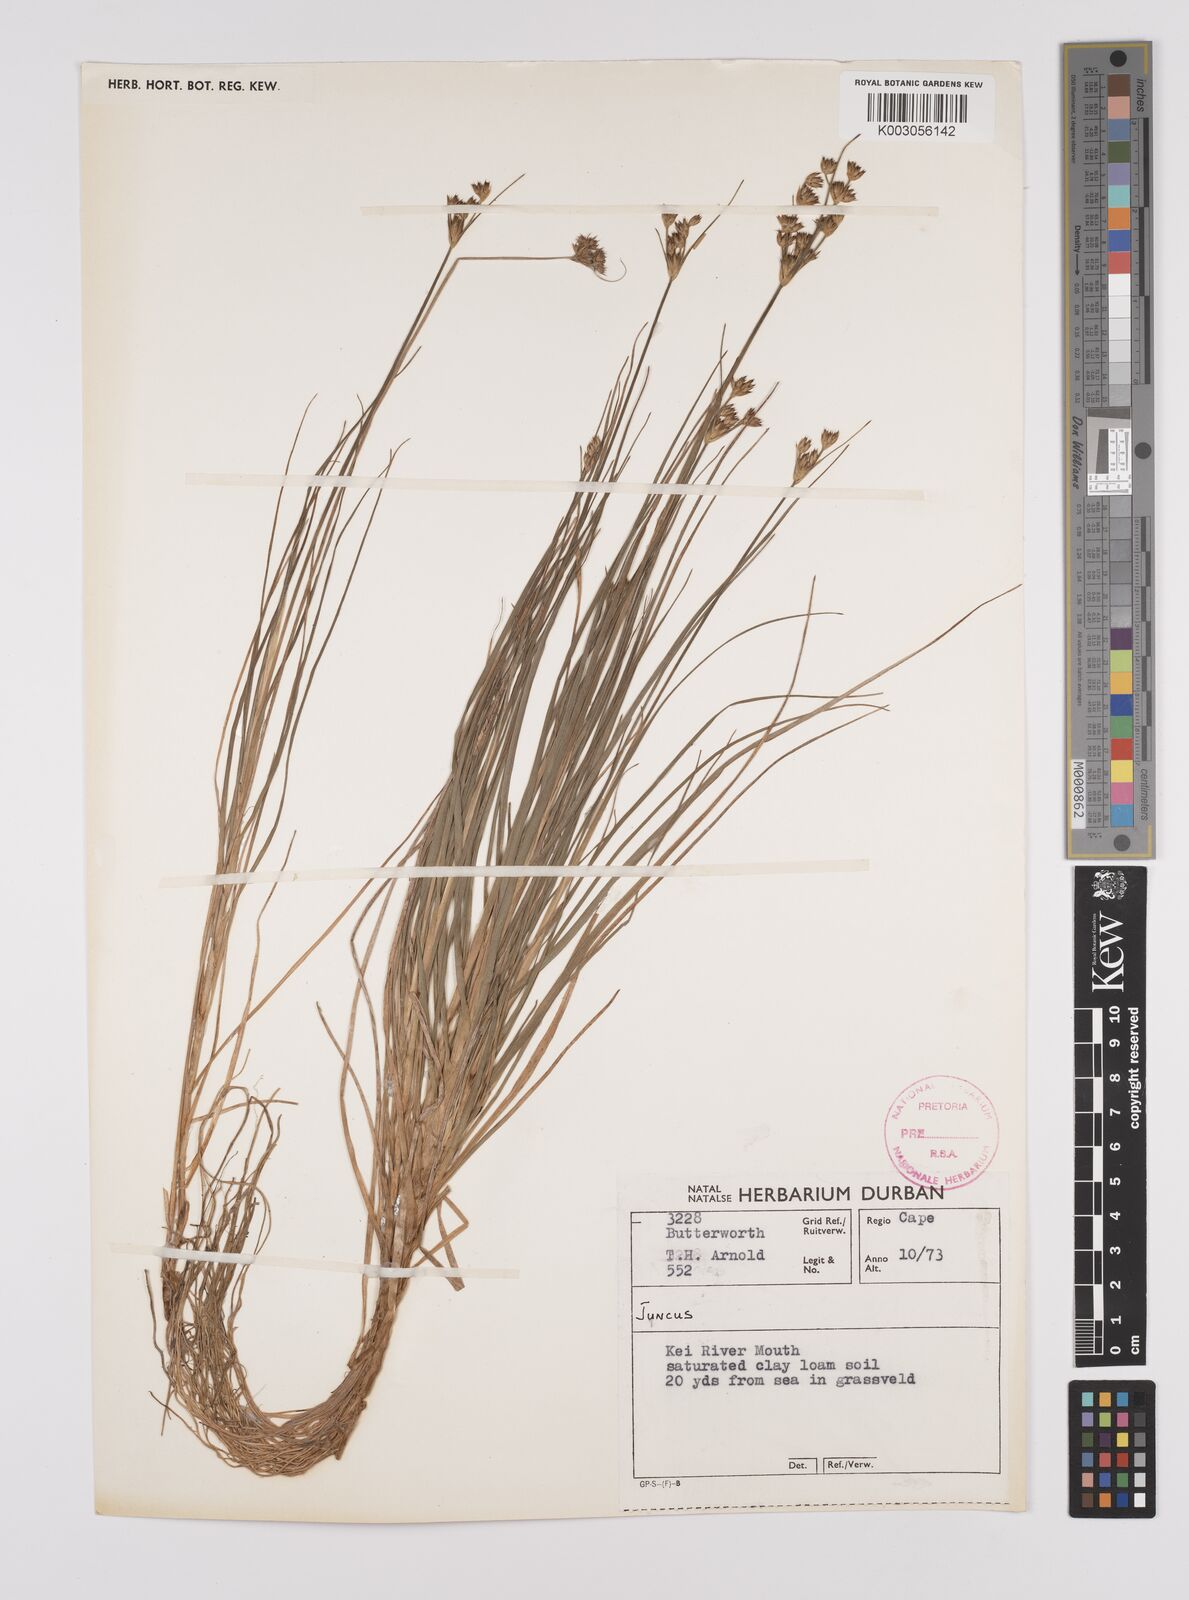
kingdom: Plantae
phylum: Tracheophyta
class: Liliopsida
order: Poales
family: Juncaceae
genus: Juncus
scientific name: Juncus
